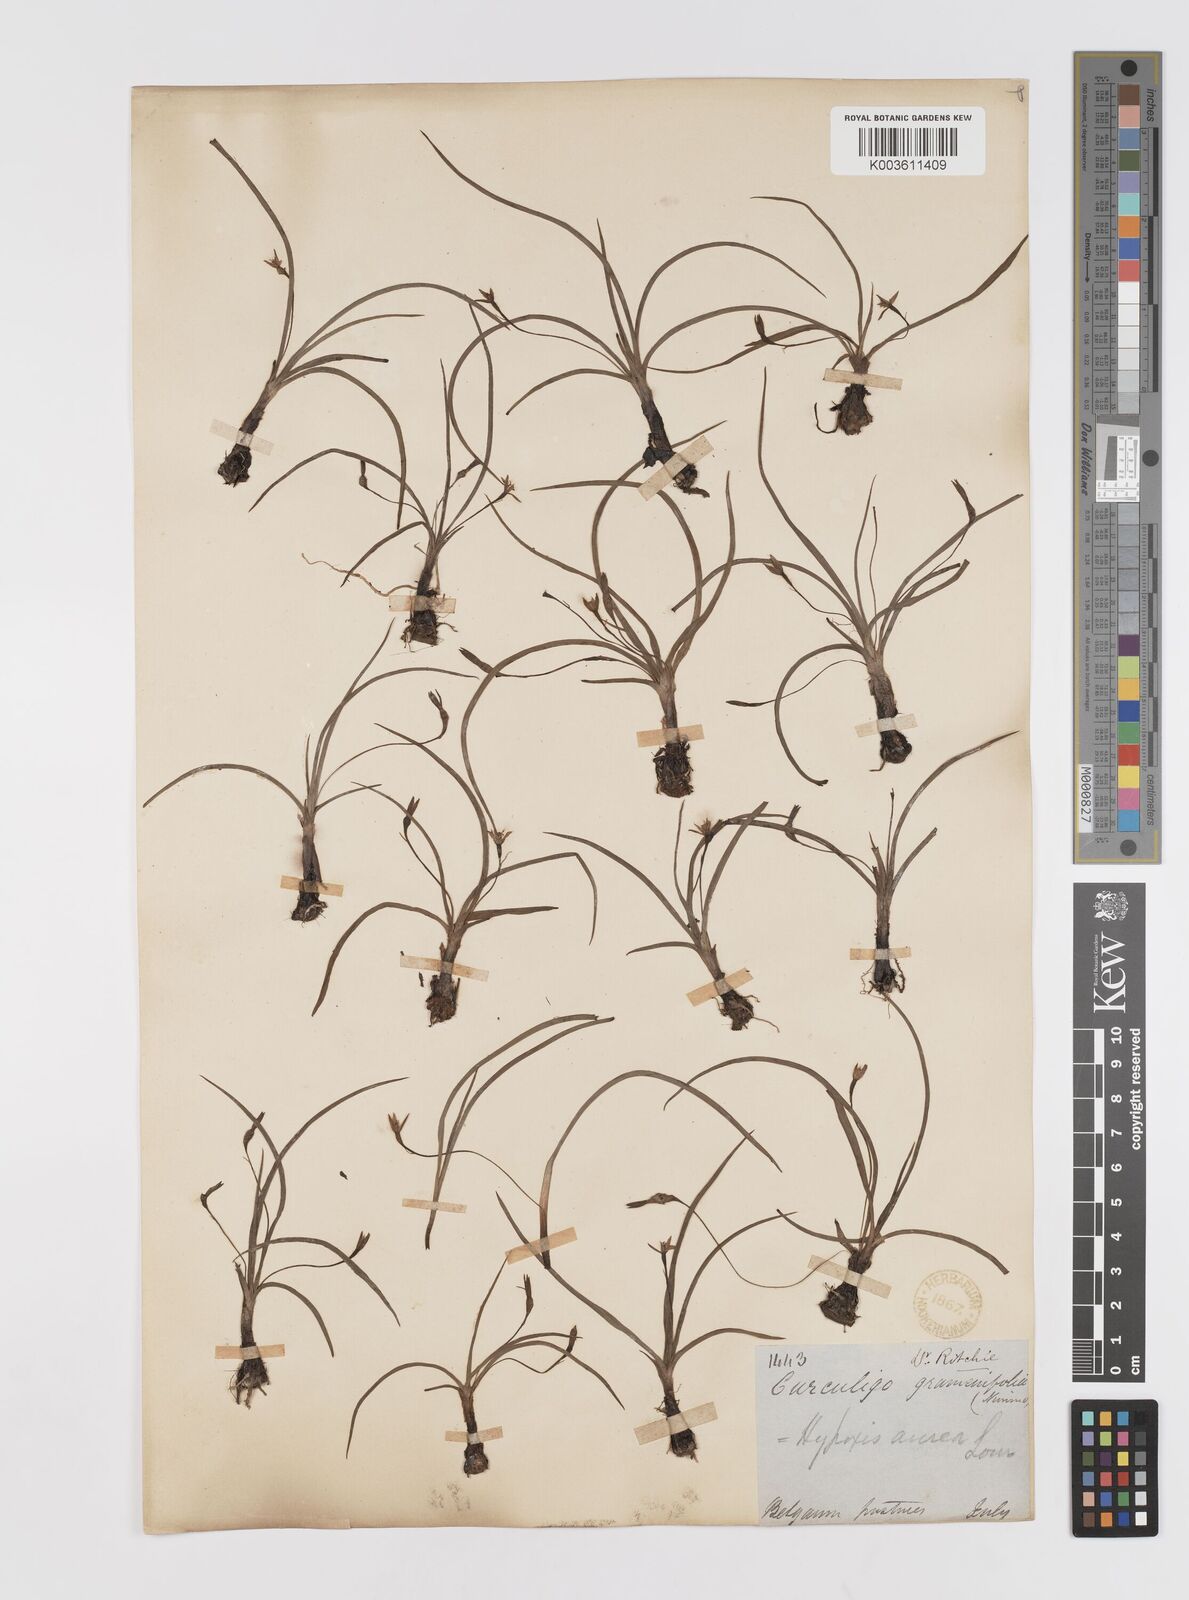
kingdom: Plantae
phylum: Tracheophyta
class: Liliopsida
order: Asparagales
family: Hypoxidaceae
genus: Hypoxis
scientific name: Hypoxis aurea
